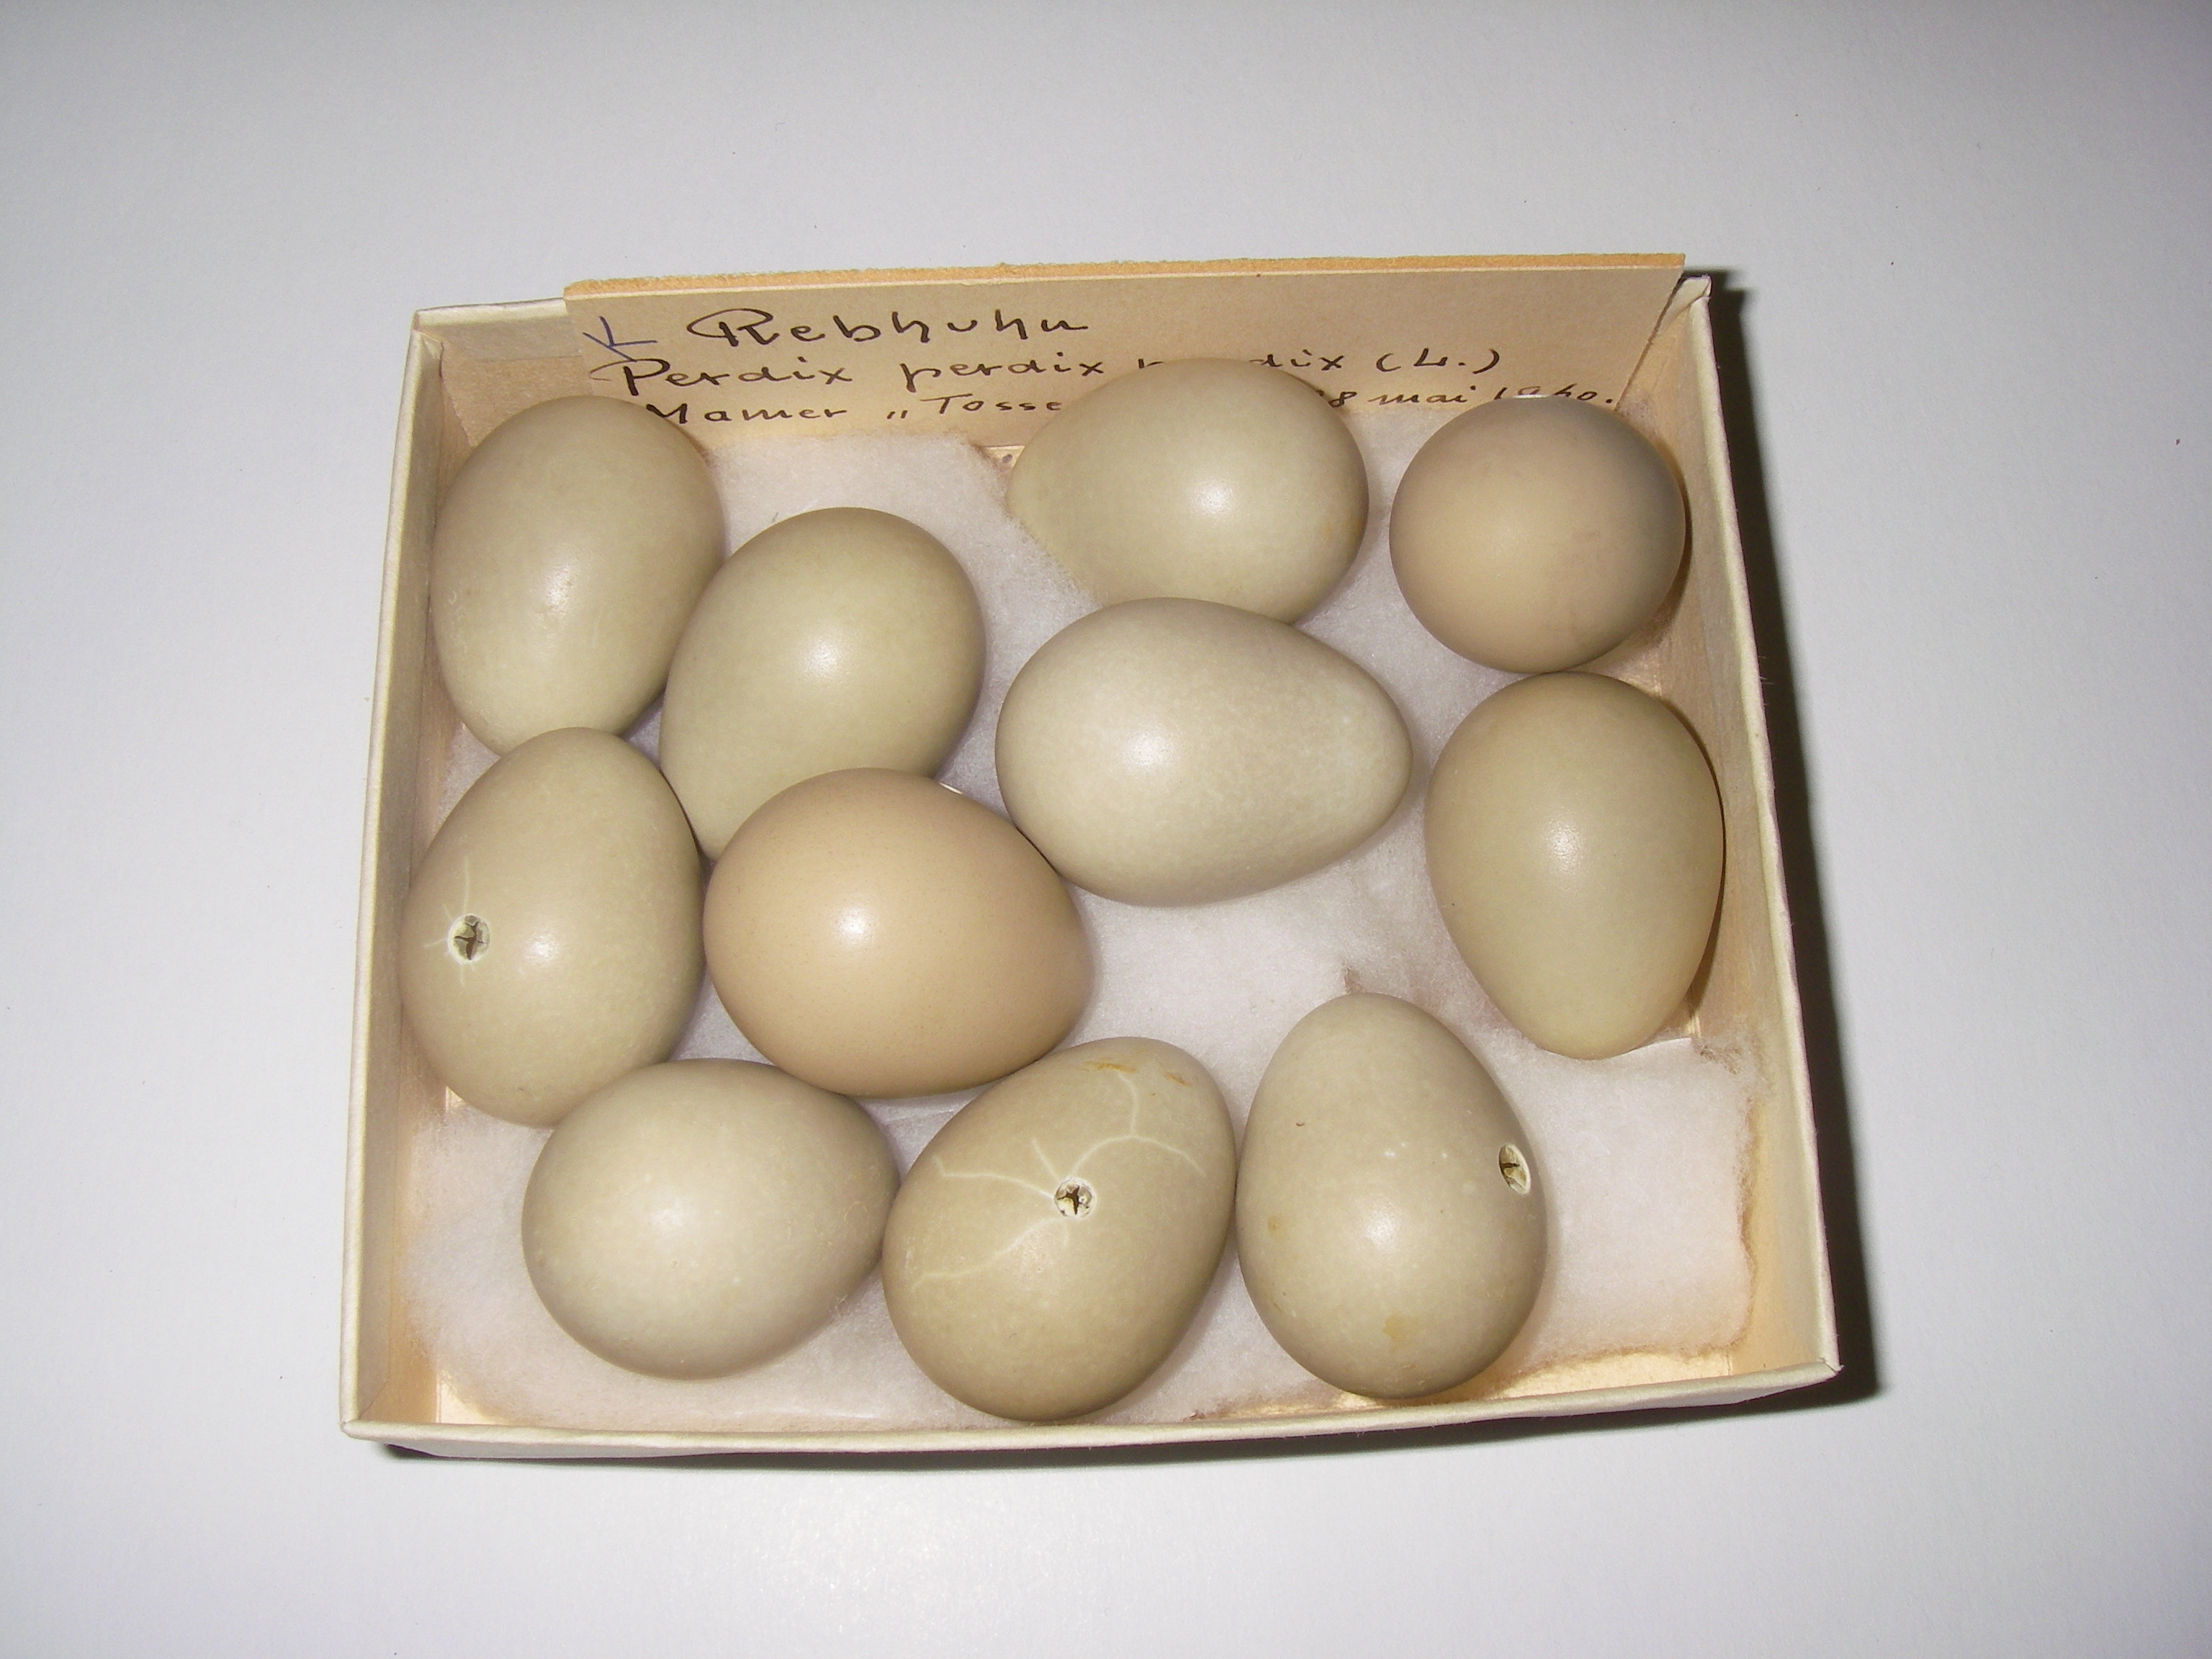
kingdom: Animalia
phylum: Chordata
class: Aves
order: Galliformes
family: Phasianidae
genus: Perdix
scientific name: Perdix perdix
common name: Grey partridge
